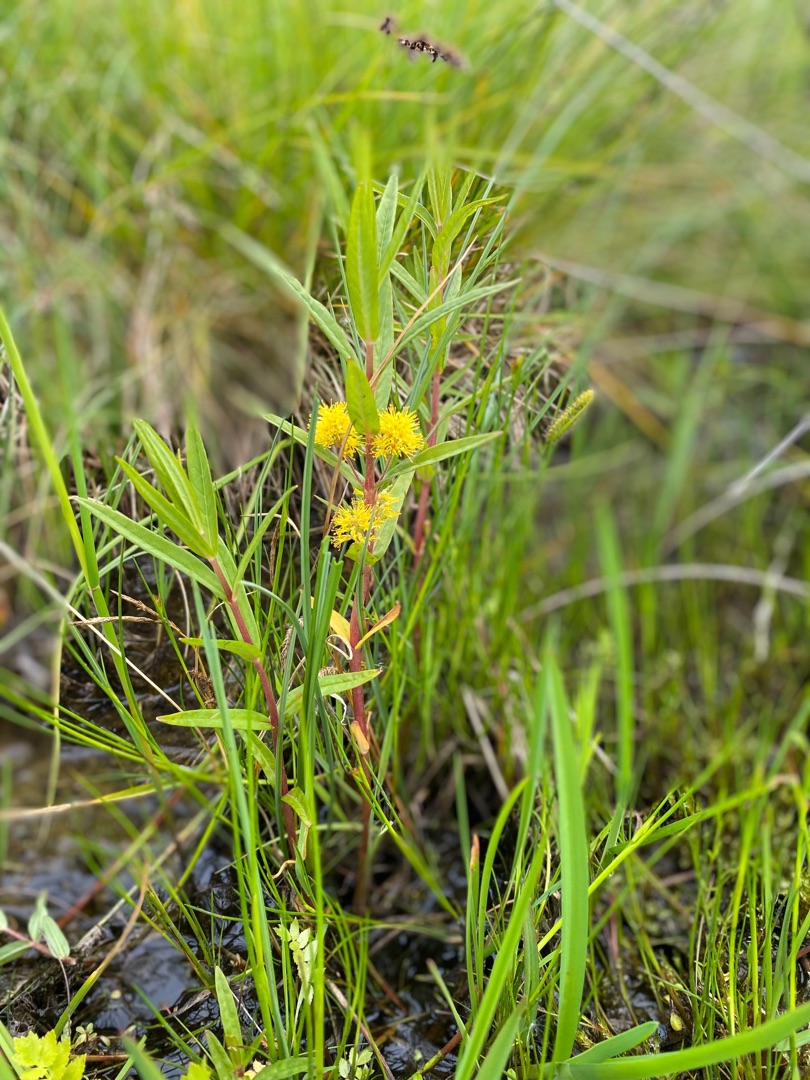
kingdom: Plantae
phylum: Tracheophyta
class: Magnoliopsida
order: Ericales
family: Primulaceae
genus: Lysimachia
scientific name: Lysimachia thyrsiflora
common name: Dusk-fredløs
